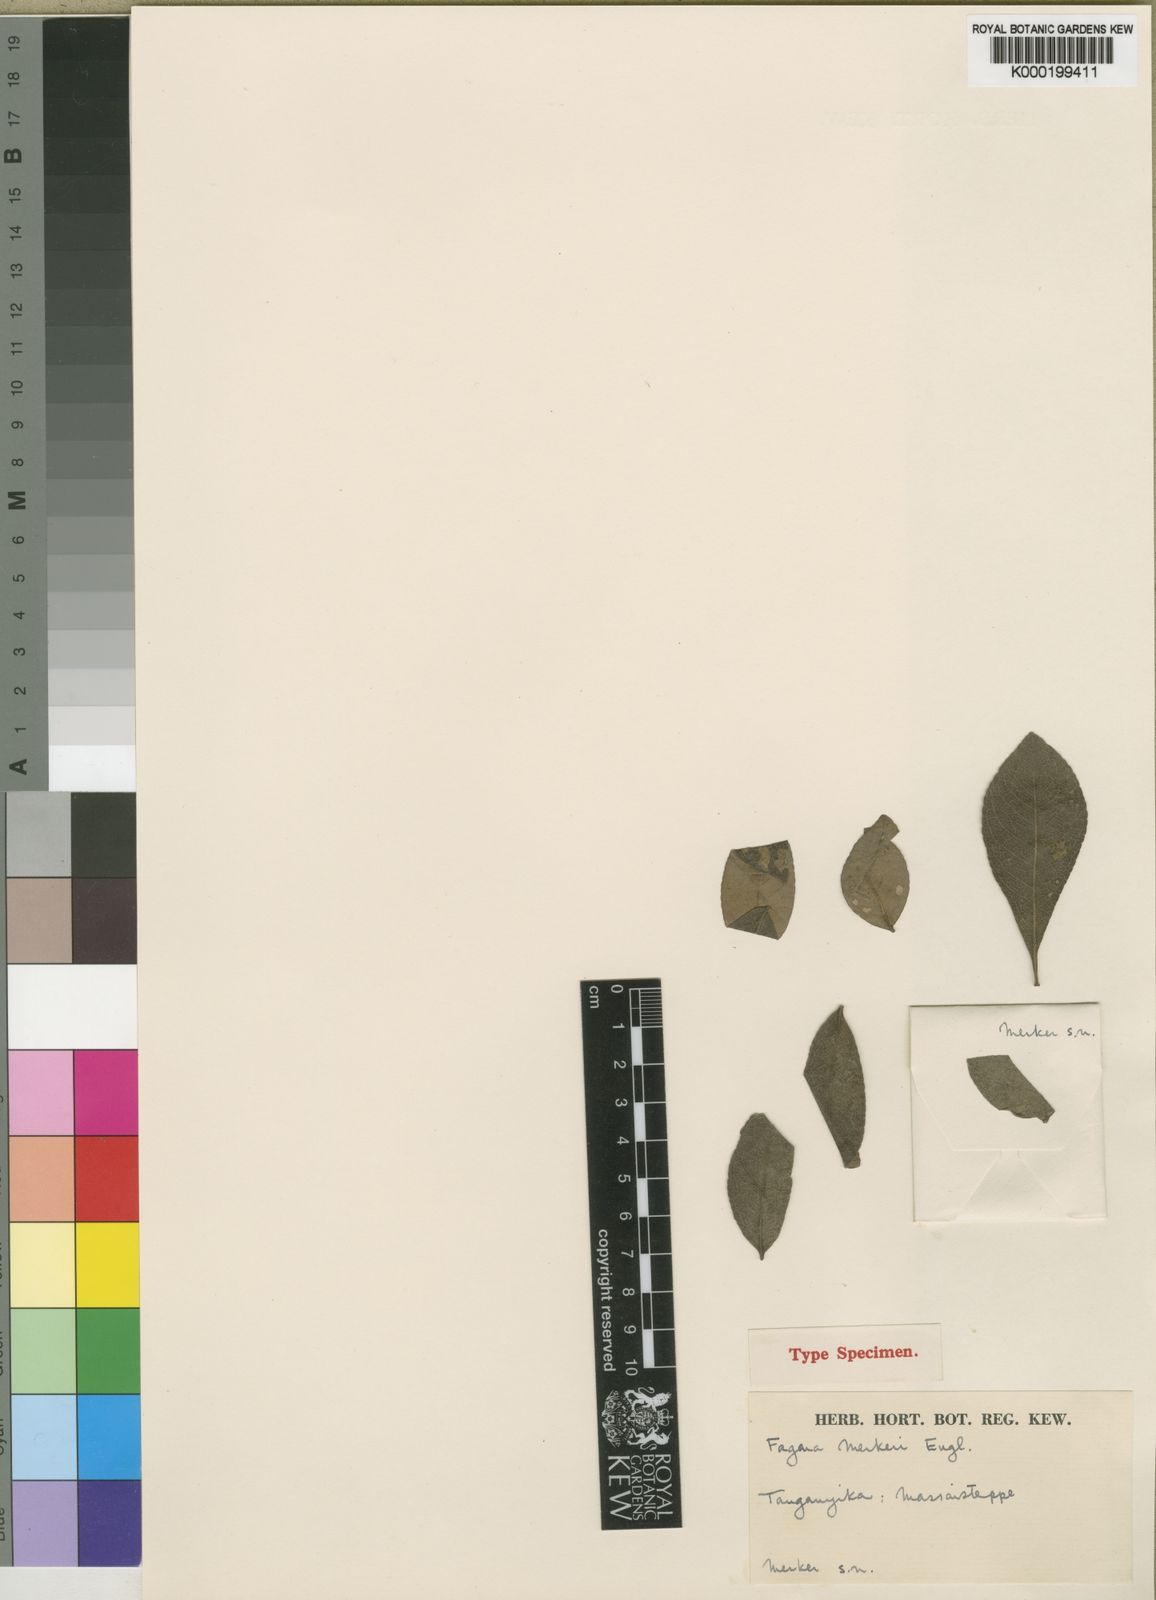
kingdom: Plantae
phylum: Tracheophyta
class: Magnoliopsida
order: Sapindales
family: Rutaceae
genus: Zanthoxylum
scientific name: Zanthoxylum chalybaeum
